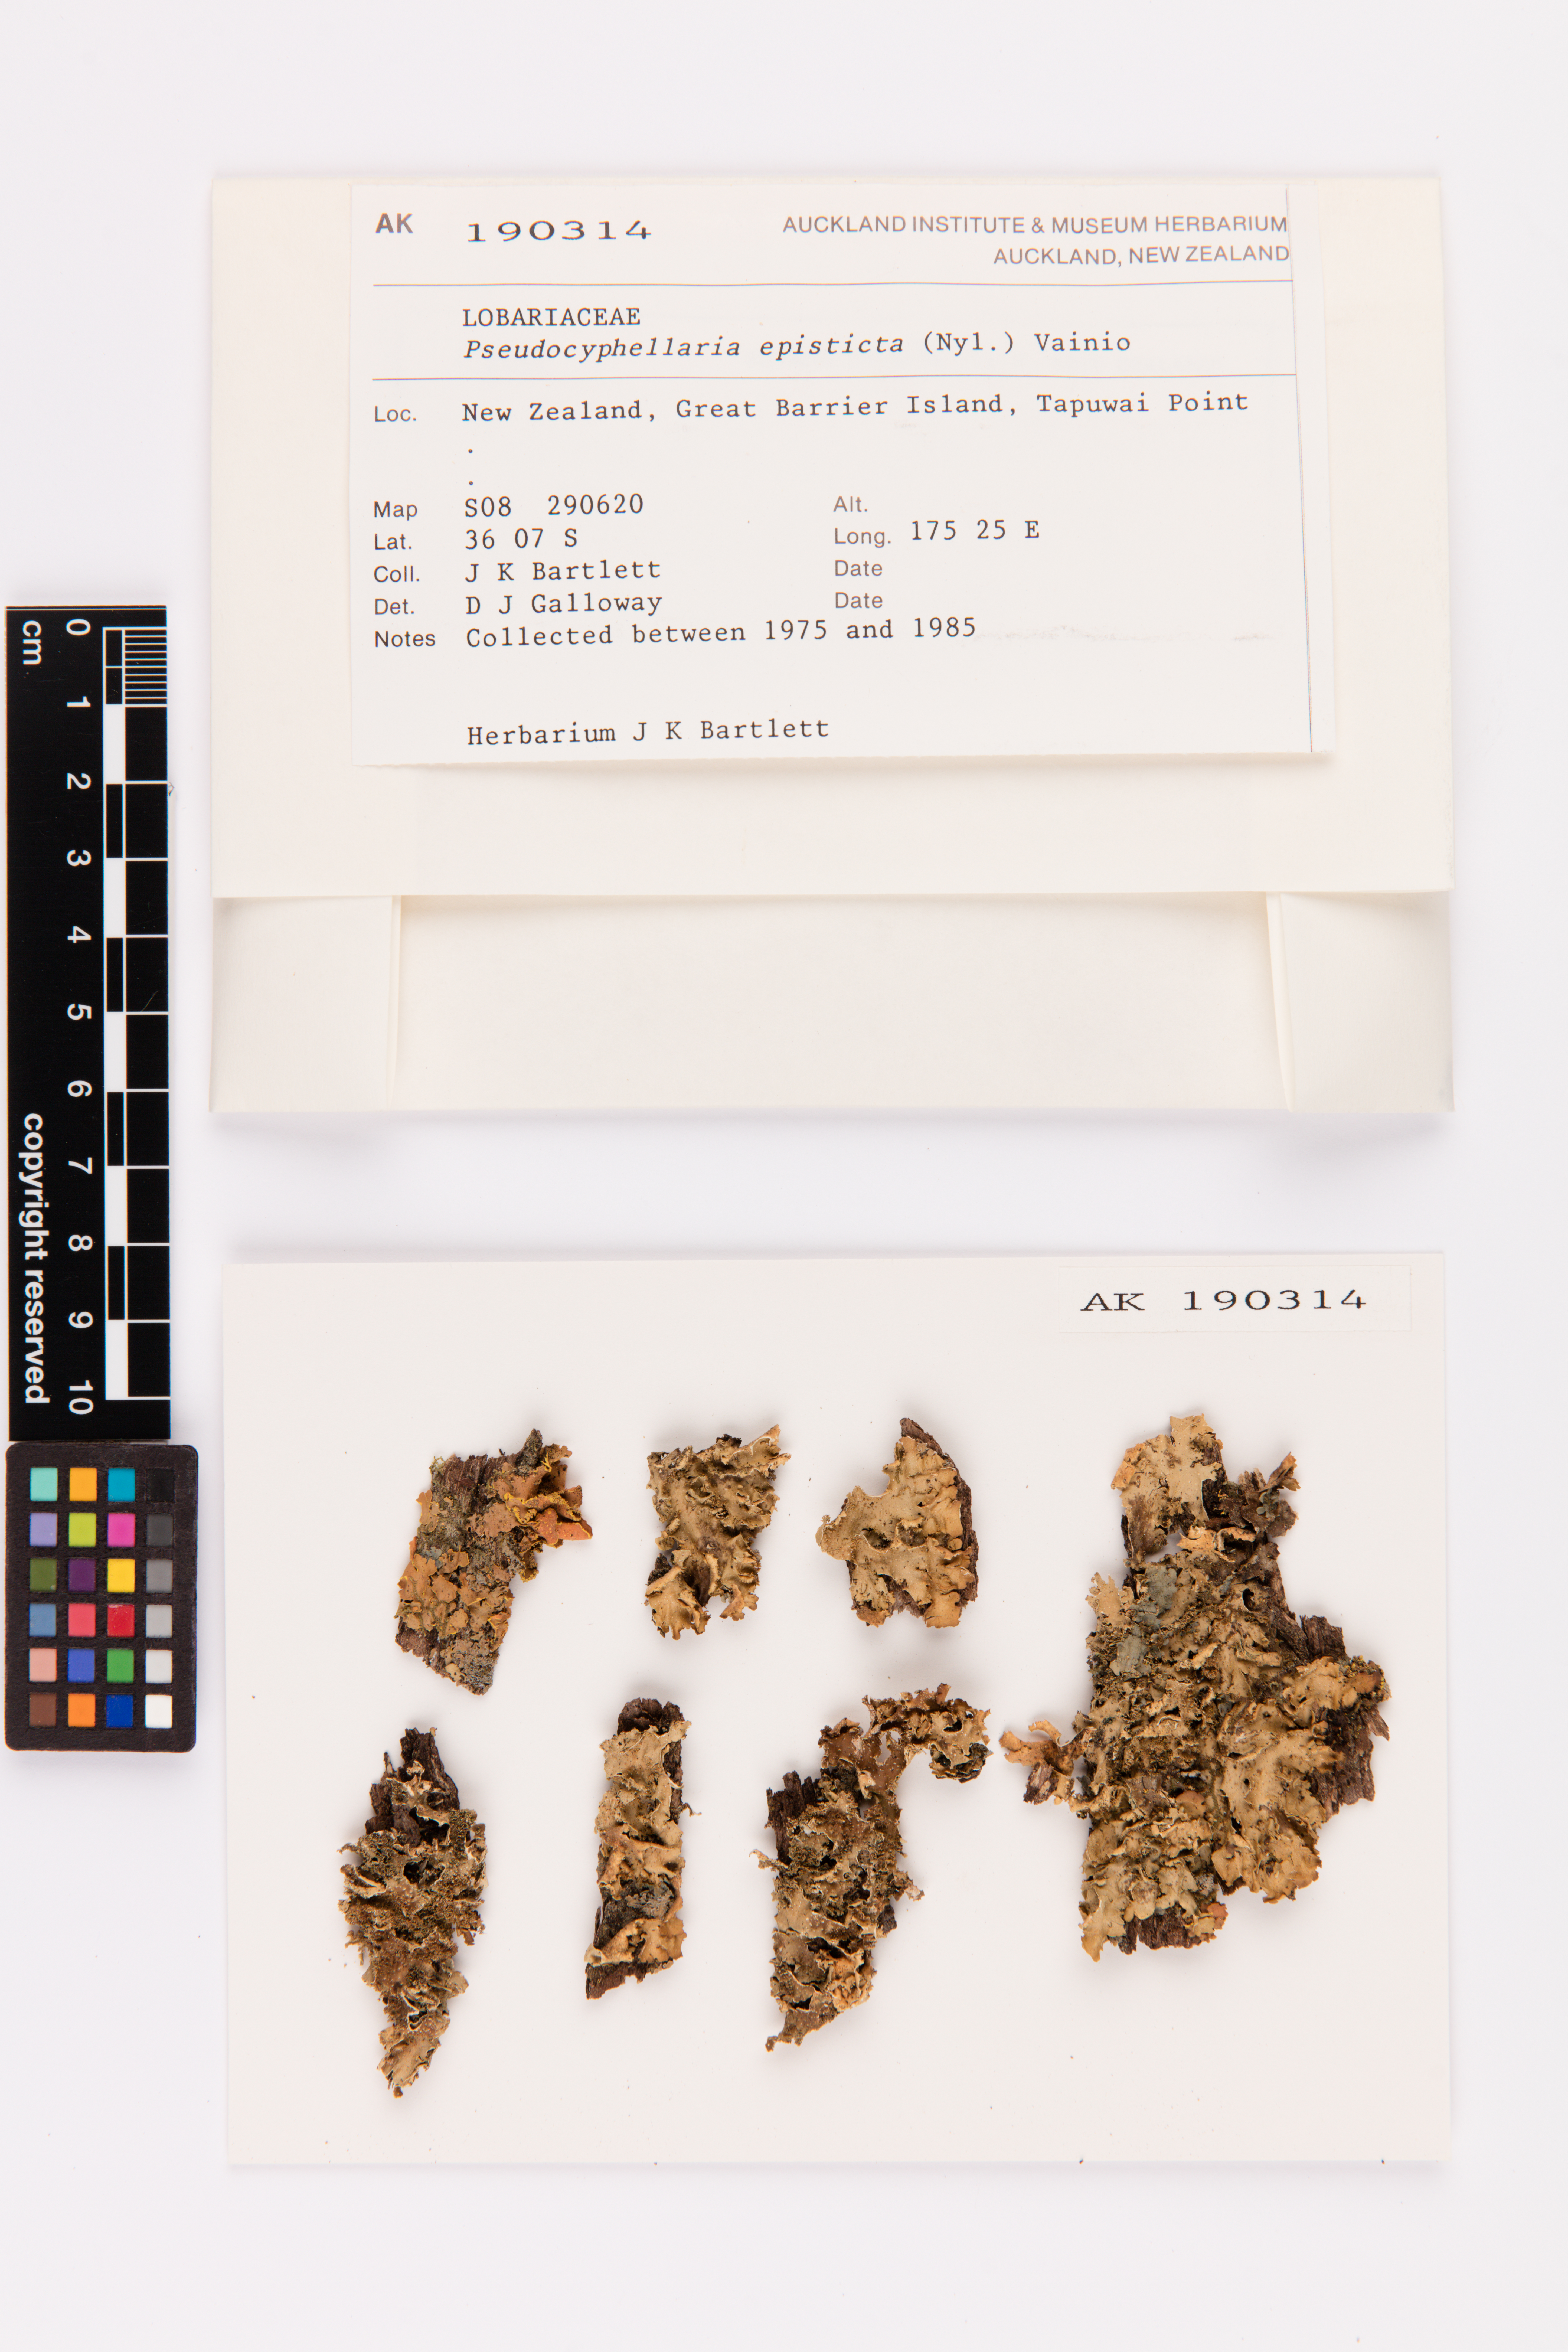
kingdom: Fungi
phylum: Ascomycota
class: Lecanoromycetes
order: Peltigerales
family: Lobariaceae
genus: Pseudocyphellaria
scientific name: Pseudocyphellaria episticta
